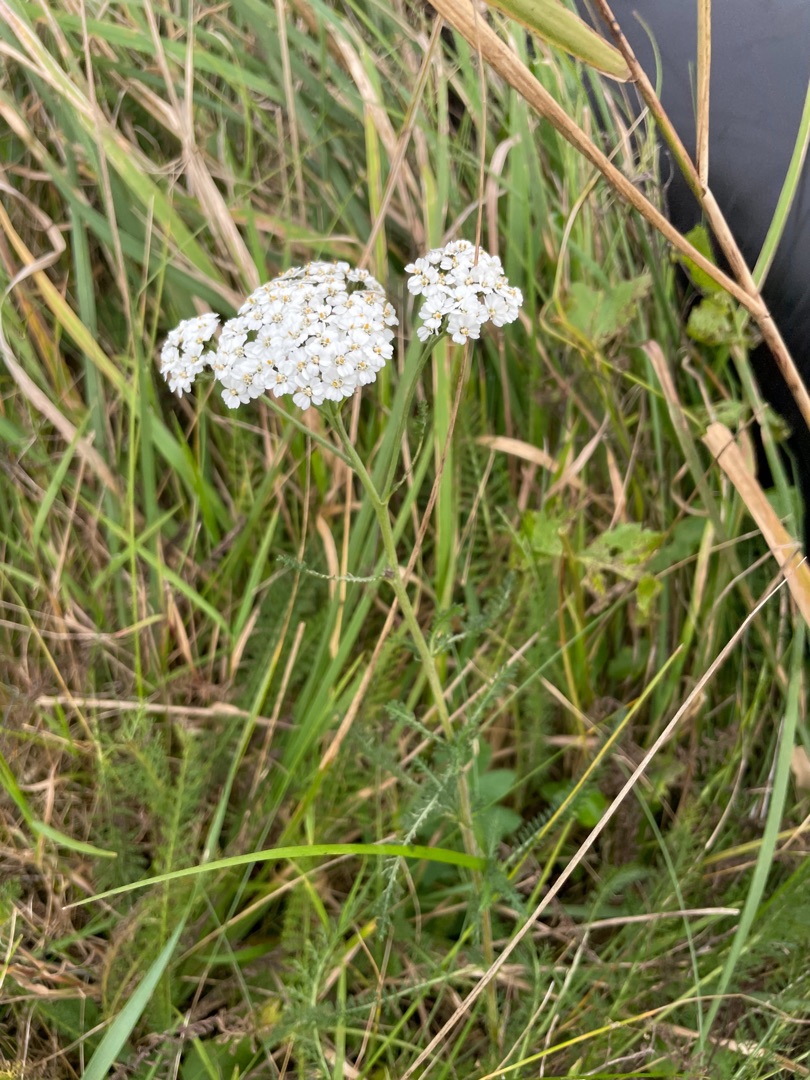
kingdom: Plantae
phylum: Tracheophyta
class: Magnoliopsida
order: Asterales
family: Asteraceae
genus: Achillea
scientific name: Achillea millefolium
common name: Almindelig røllike
